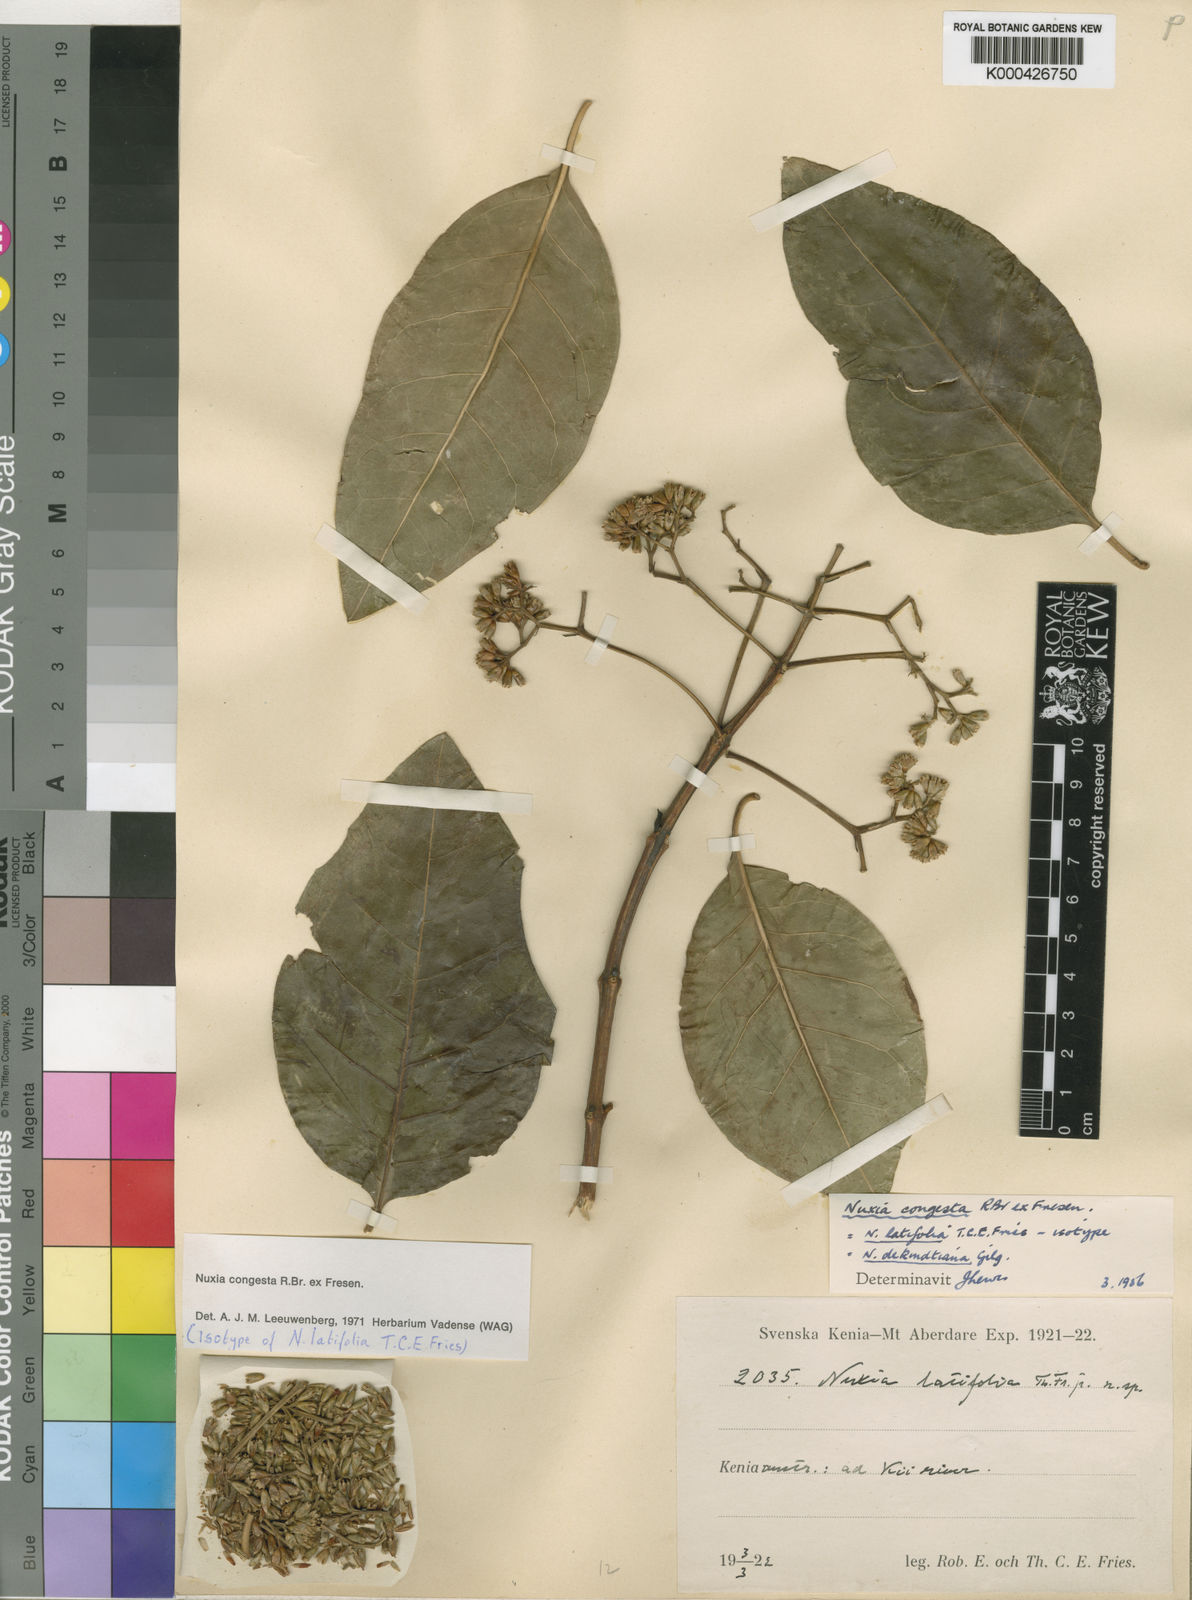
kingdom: Plantae
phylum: Tracheophyta
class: Magnoliopsida
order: Lamiales
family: Stilbaceae
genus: Nuxia
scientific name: Nuxia congesta
